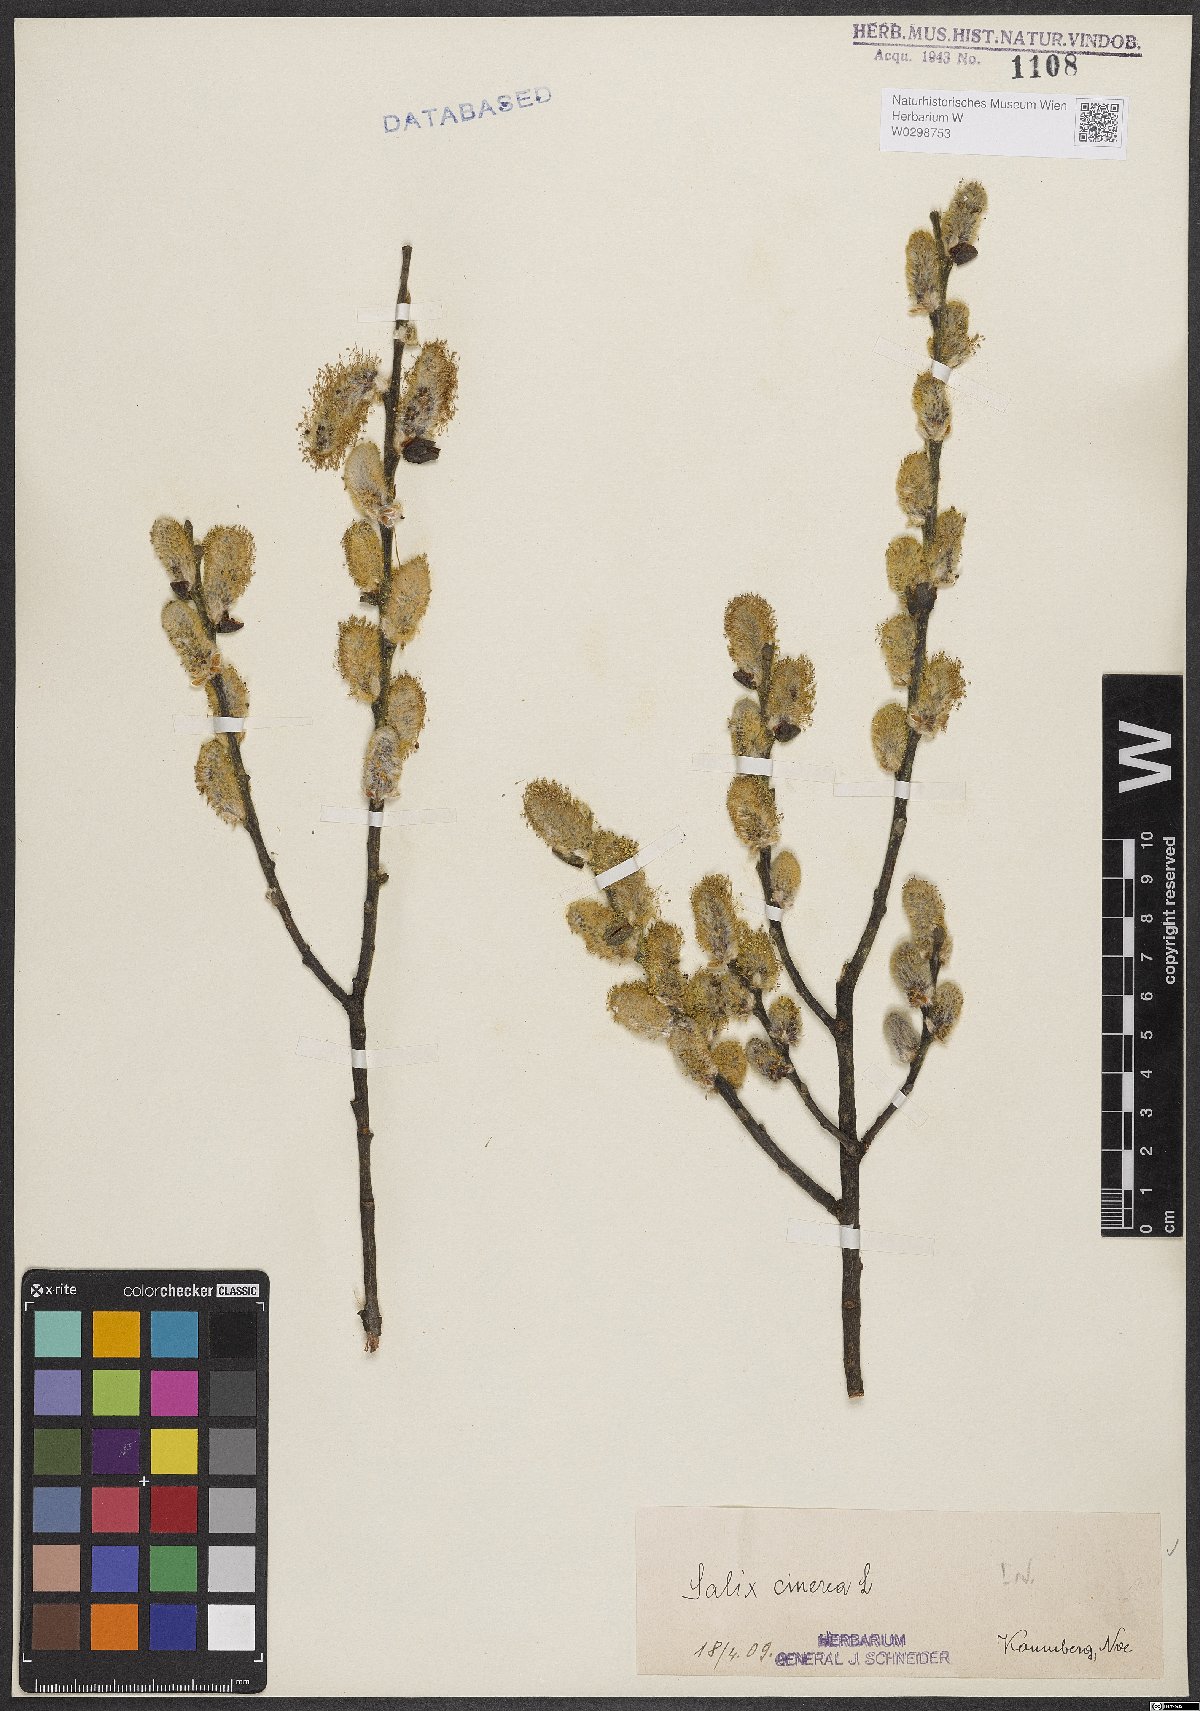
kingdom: Plantae
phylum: Tracheophyta
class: Magnoliopsida
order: Malpighiales
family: Salicaceae
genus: Salix
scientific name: Salix cinerea
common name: Common sallow
